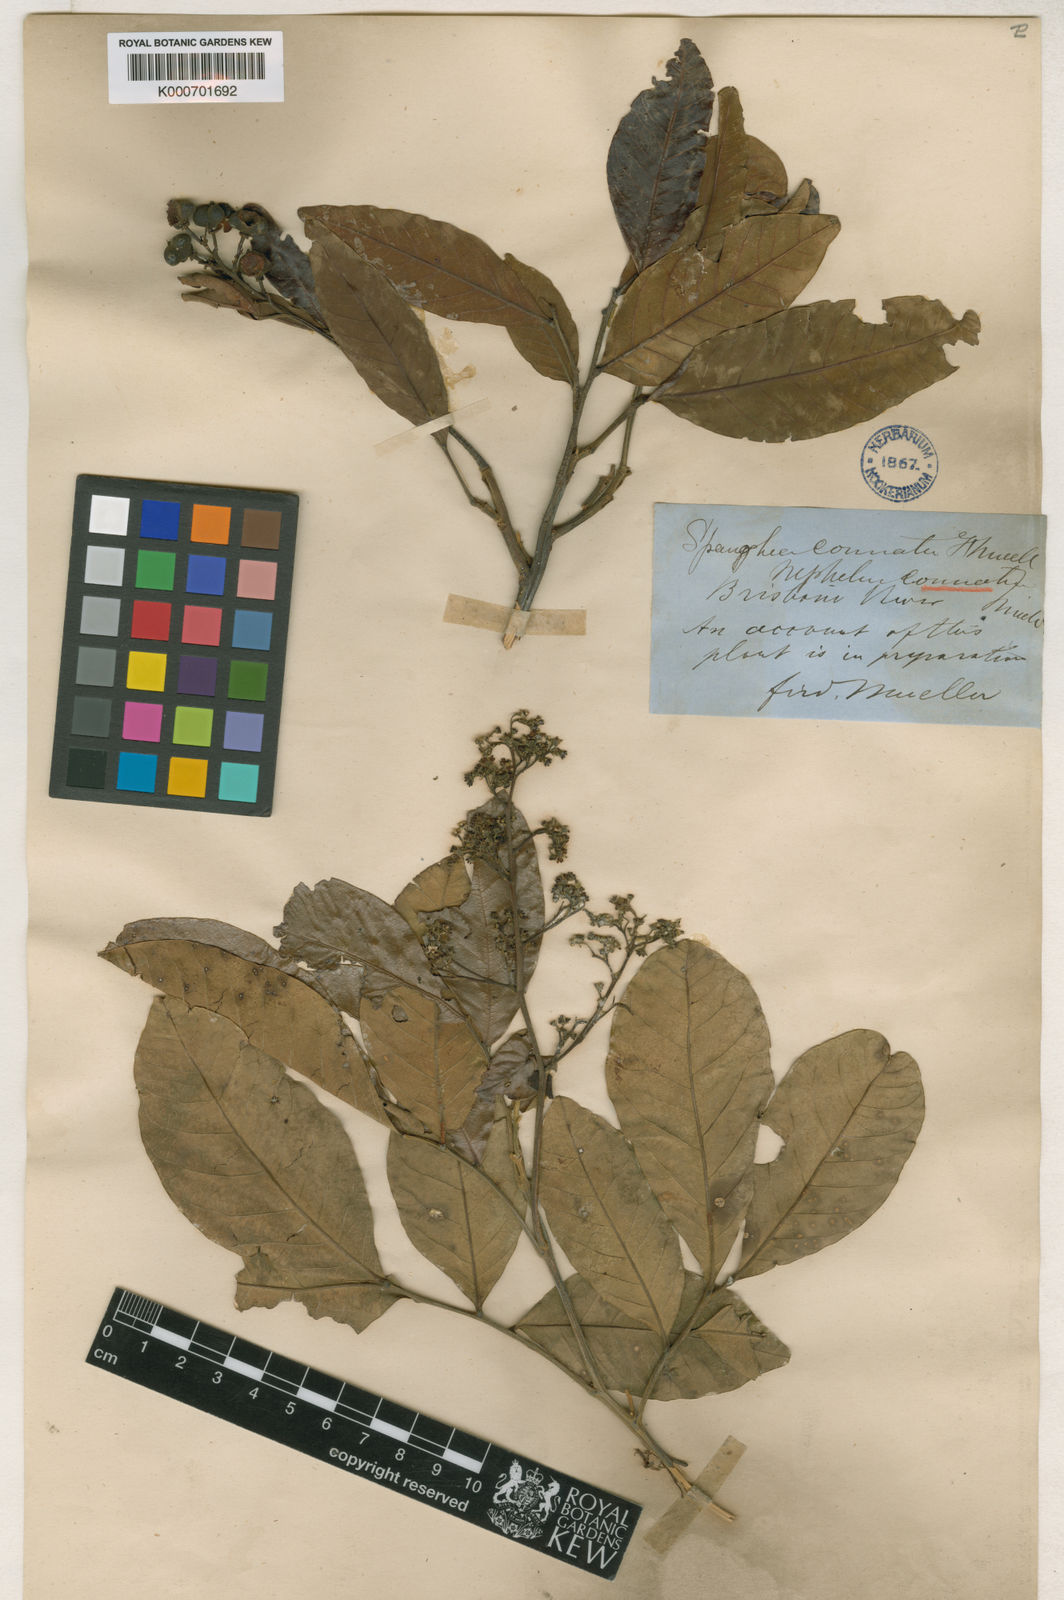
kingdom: Plantae
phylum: Tracheophyta
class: Magnoliopsida
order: Sapindales
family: Sapindaceae
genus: Alectryon
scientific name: Alectryon connatus
